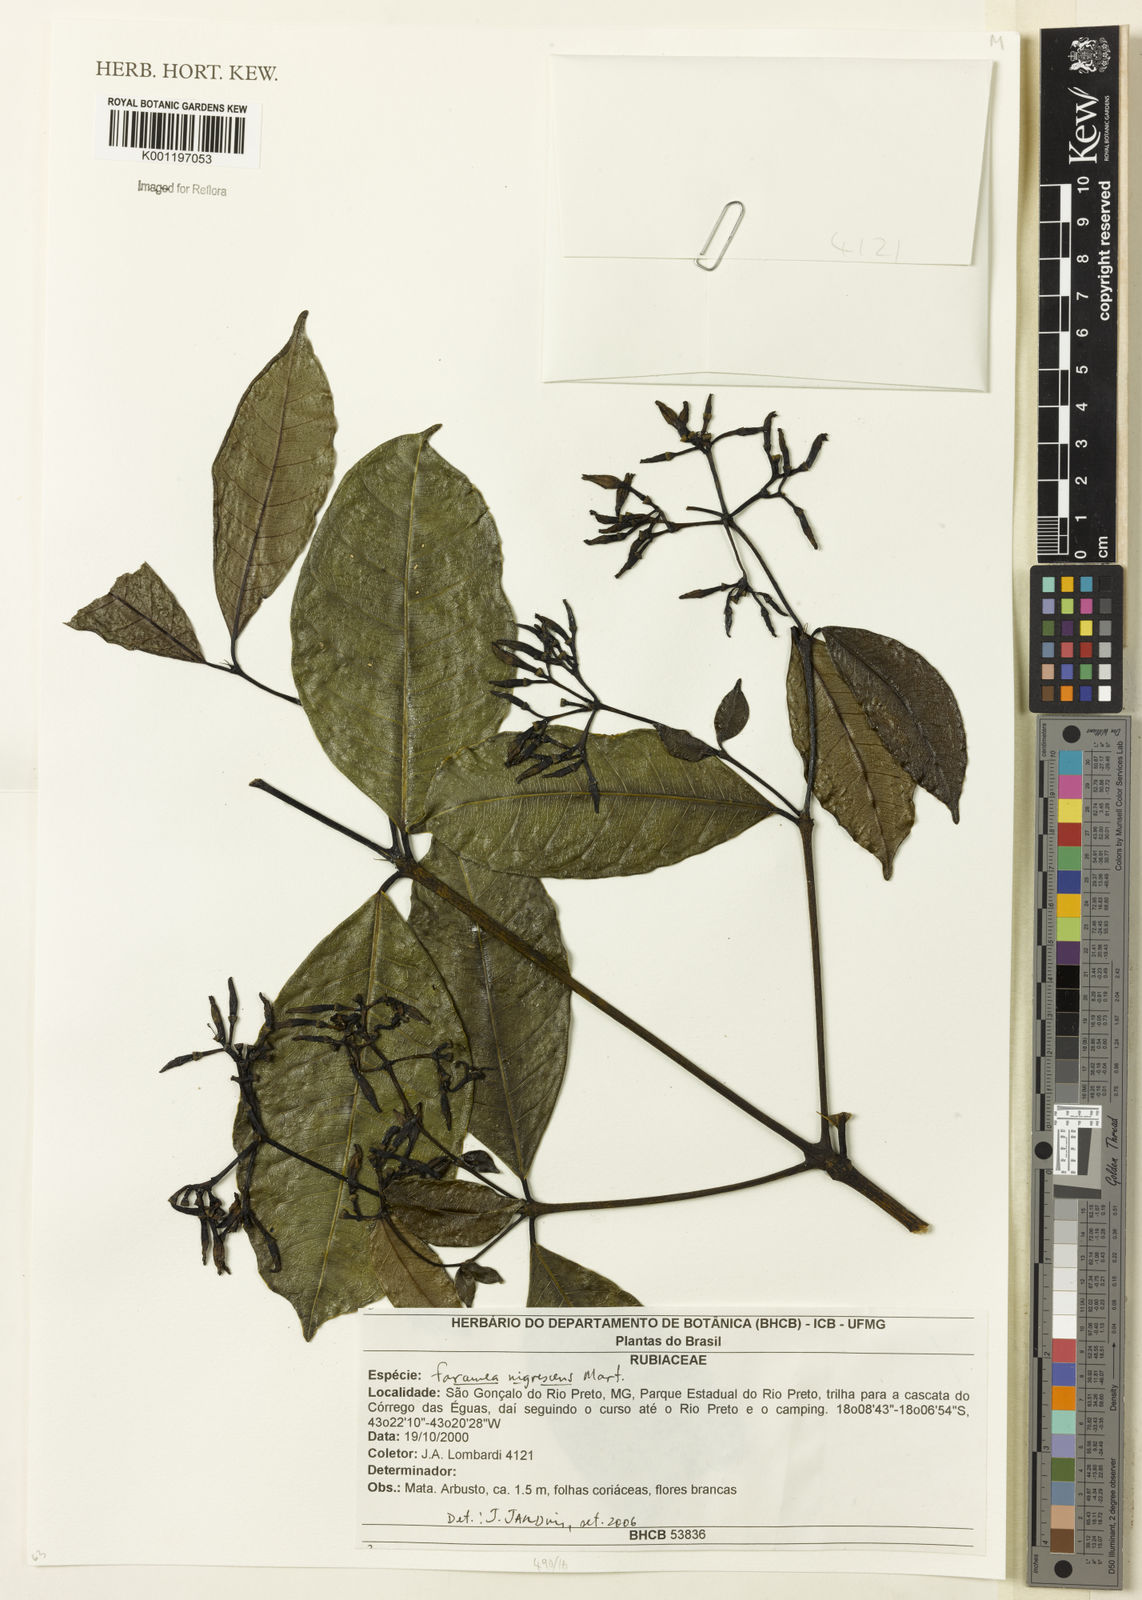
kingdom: Plantae
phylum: Tracheophyta
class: Magnoliopsida
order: Gentianales
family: Rubiaceae
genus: Faramea
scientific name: Faramea nigrescens
